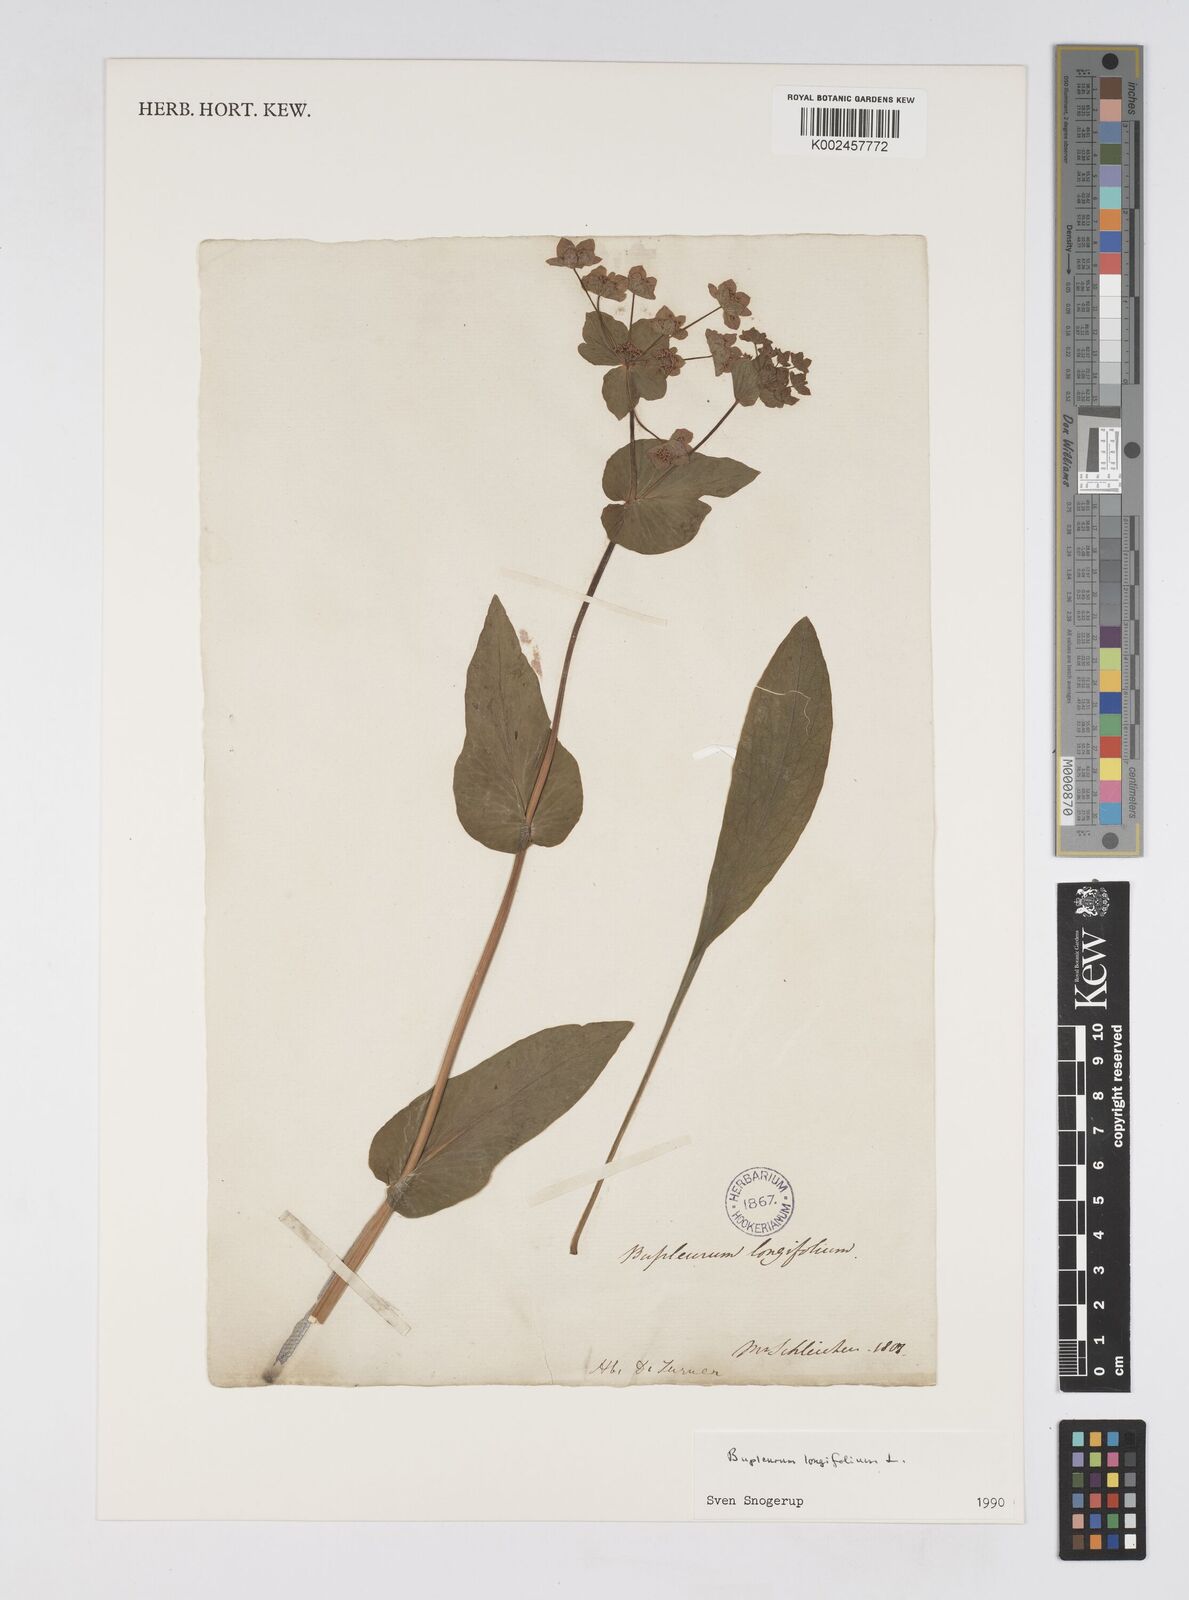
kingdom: Plantae
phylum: Tracheophyta
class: Magnoliopsida
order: Apiales
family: Apiaceae
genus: Bupleurum
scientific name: Bupleurum longifolium
